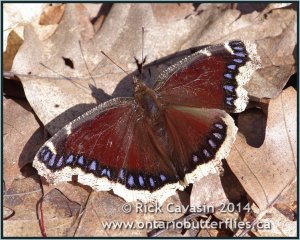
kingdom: Animalia
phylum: Arthropoda
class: Insecta
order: Lepidoptera
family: Nymphalidae
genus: Nymphalis
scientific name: Nymphalis antiopa
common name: Mourning Cloak
